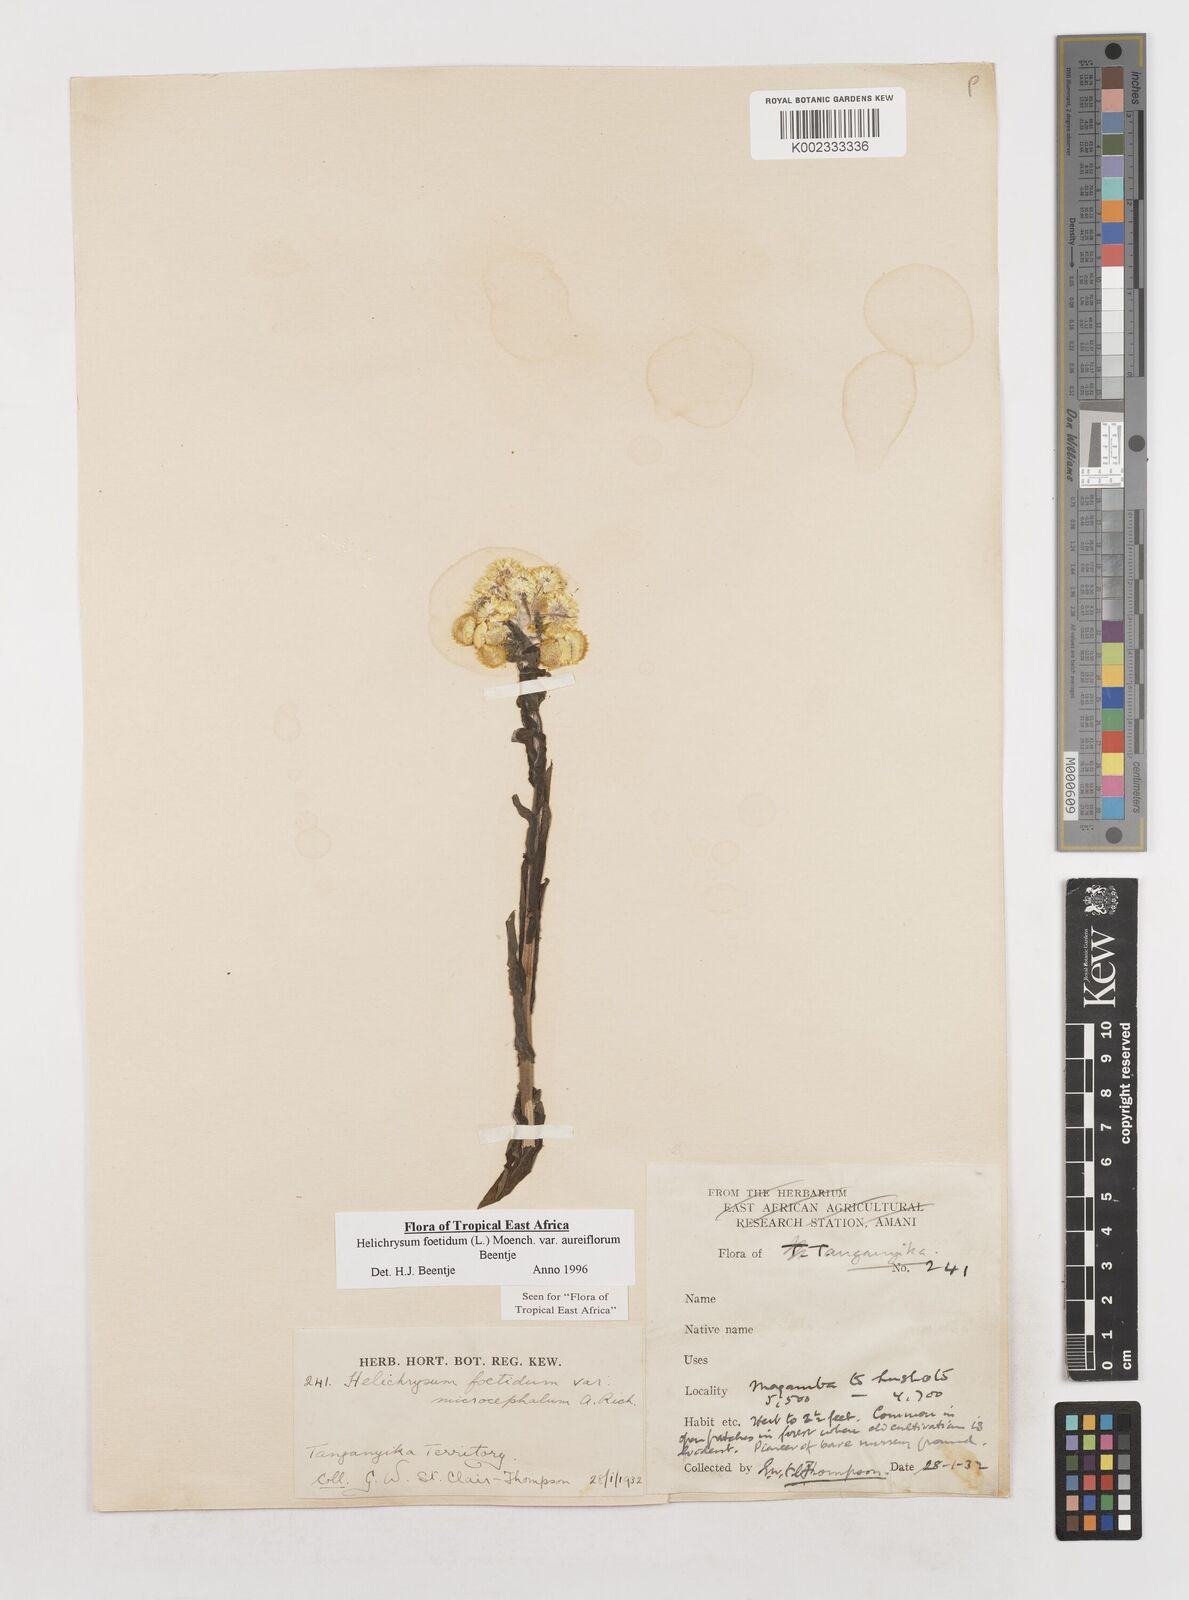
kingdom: Plantae
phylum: Tracheophyta
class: Magnoliopsida
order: Asterales
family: Asteraceae
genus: Helichrysum
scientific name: Helichrysum foetidum
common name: Stinking everlasting
